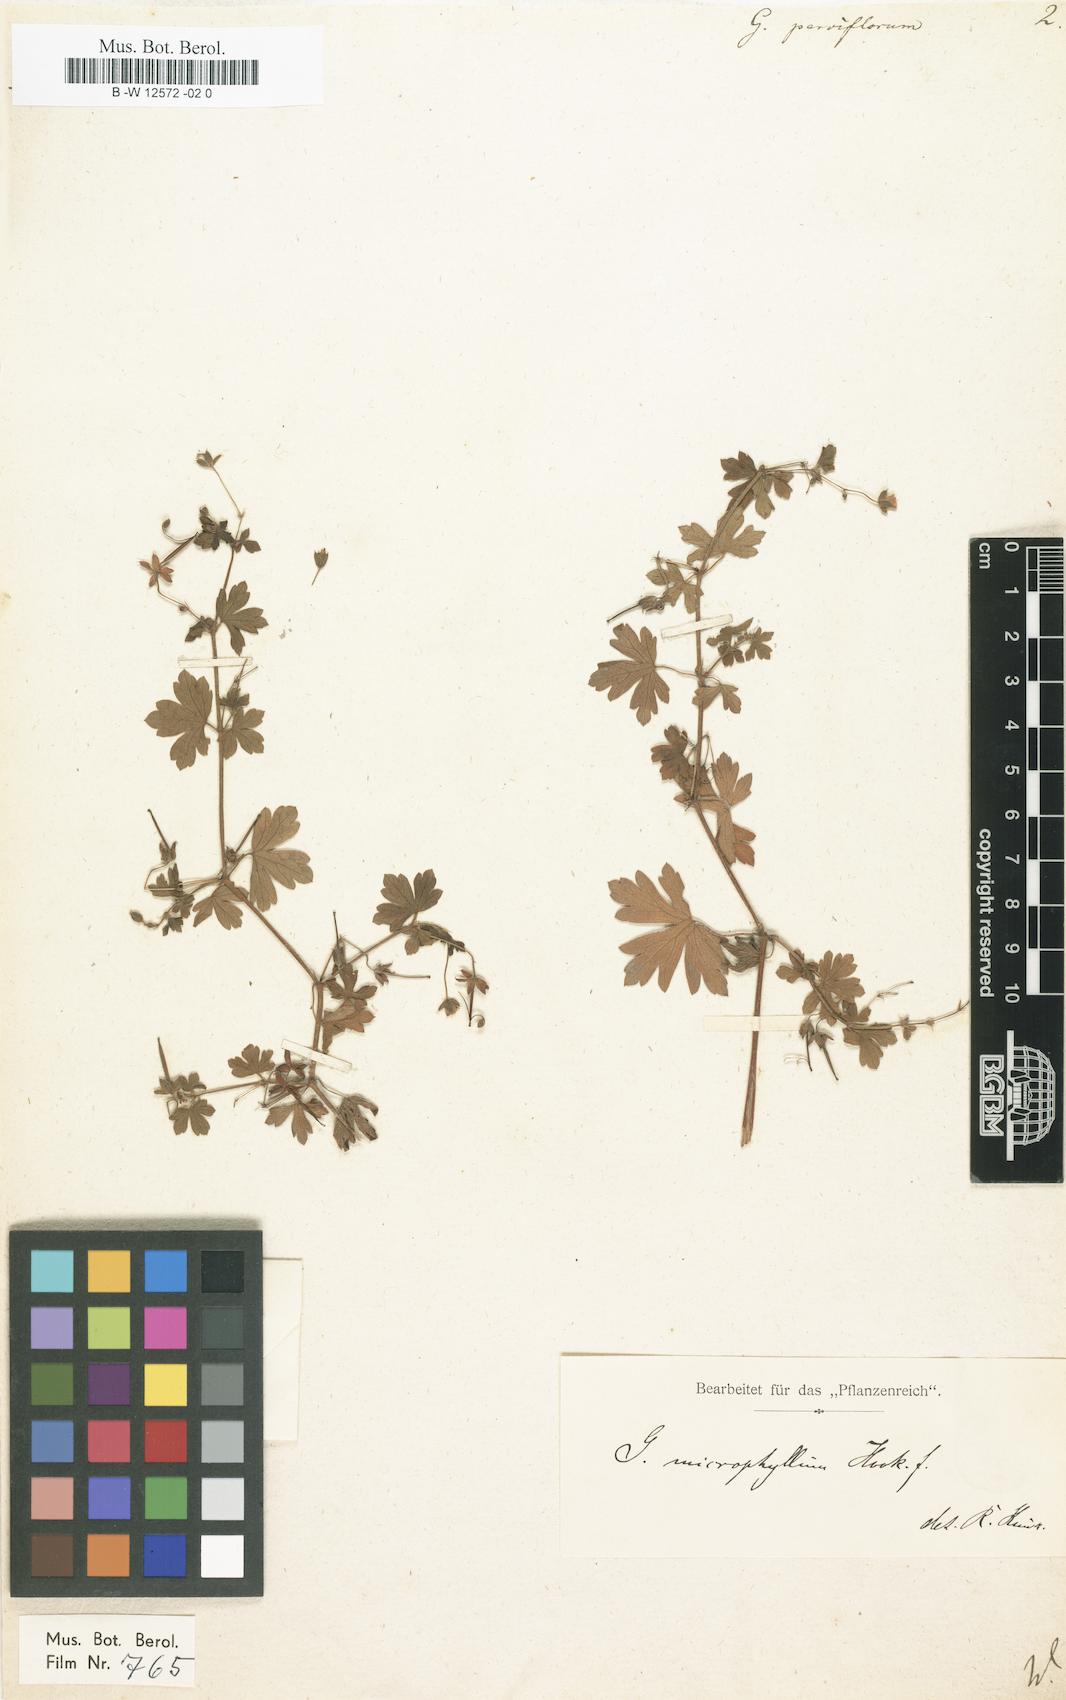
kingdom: Plantae
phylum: Tracheophyta
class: Magnoliopsida
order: Geraniales
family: Geraniaceae
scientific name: Geraniaceae
